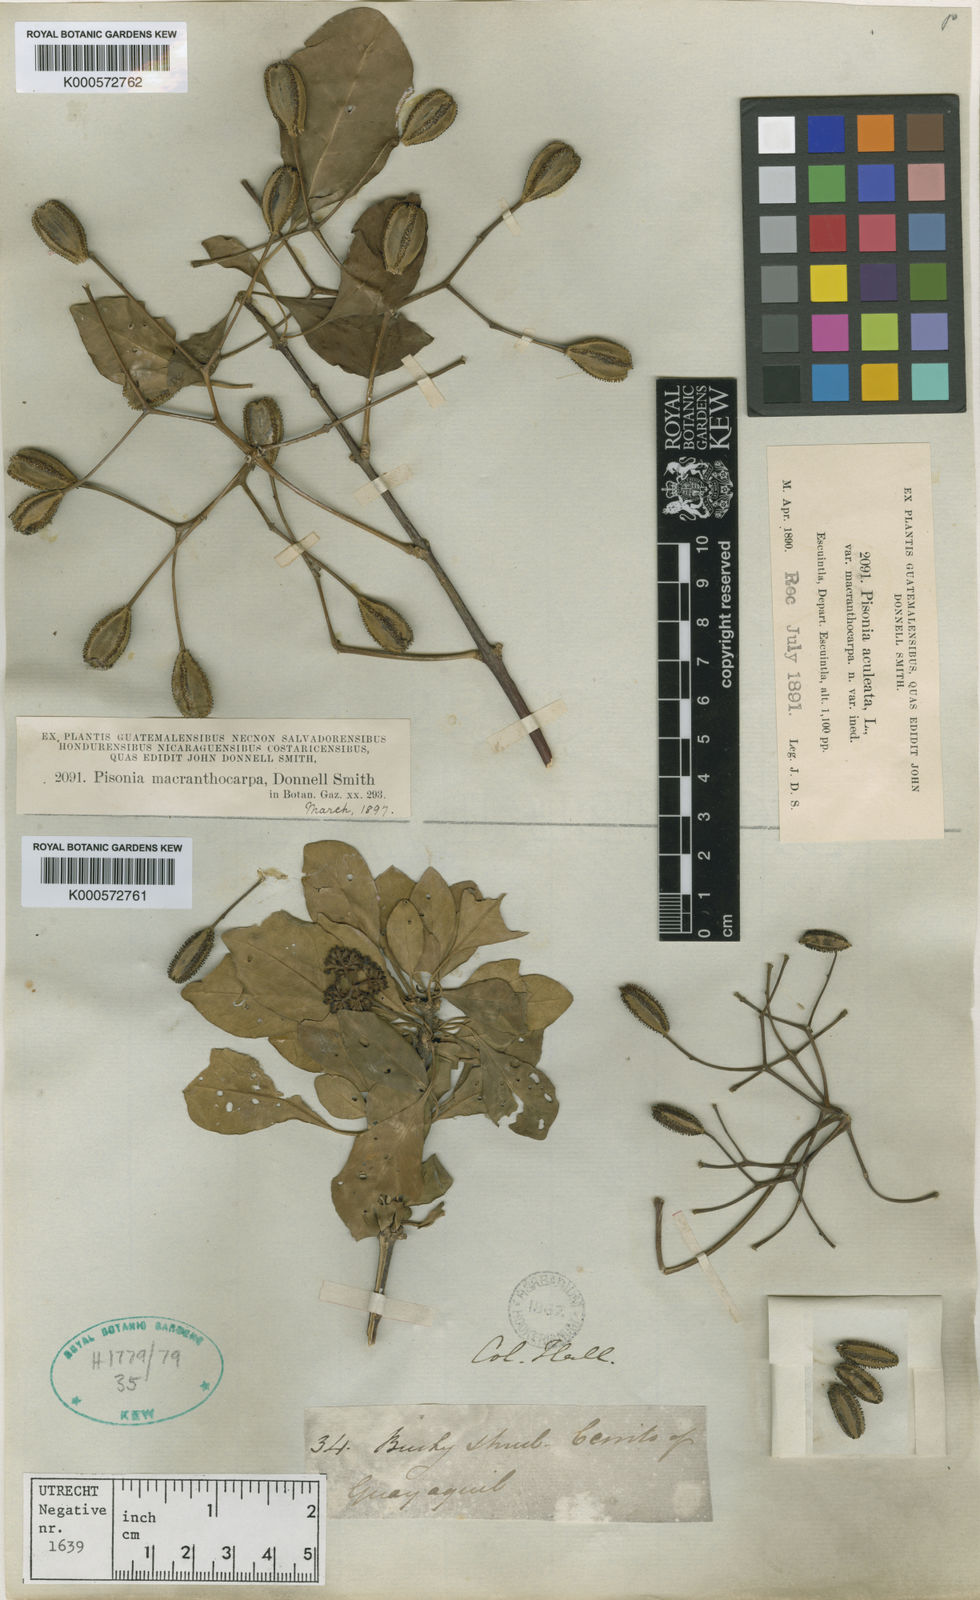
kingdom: Plantae
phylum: Tracheophyta
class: Magnoliopsida
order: Caryophyllales
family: Nyctaginaceae
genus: Pisonia
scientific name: Pisonia macranthocarpa
